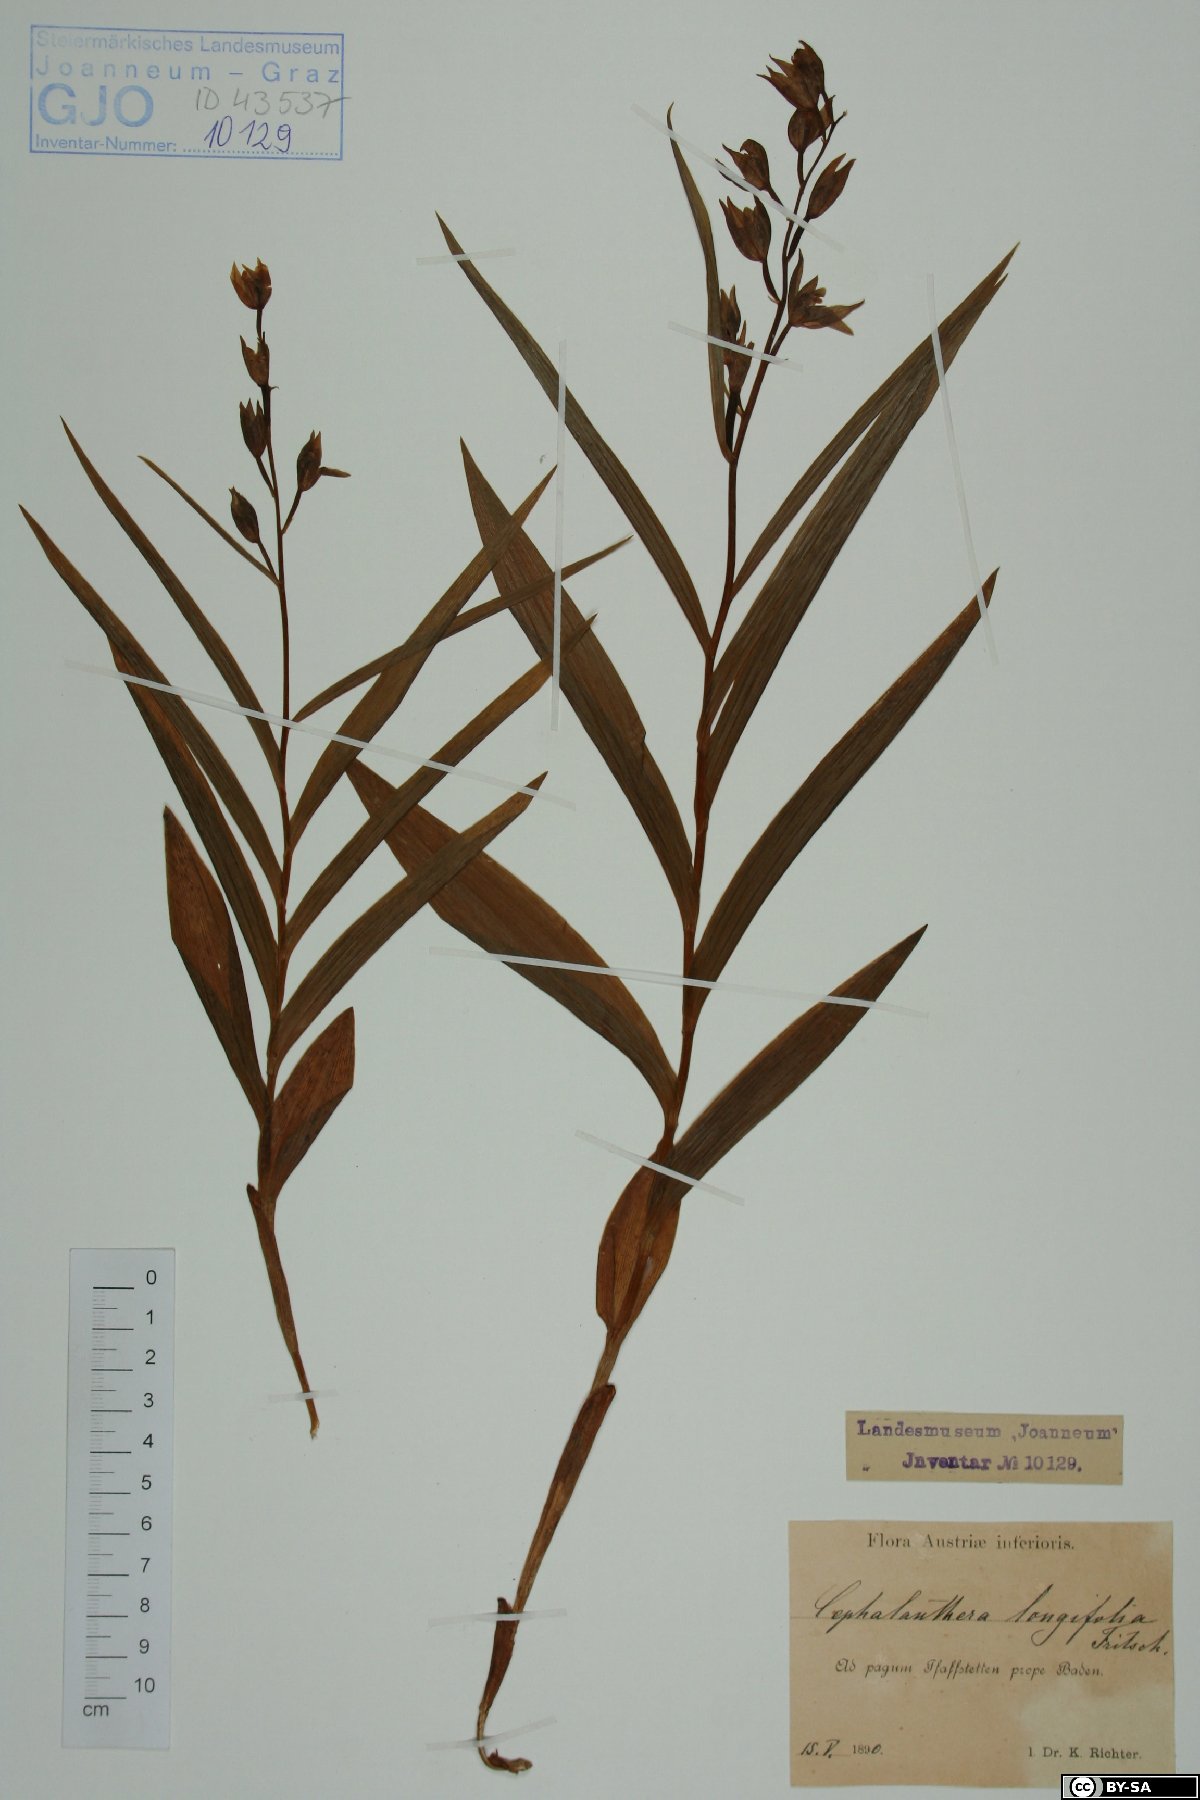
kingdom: Plantae
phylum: Tracheophyta
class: Liliopsida
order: Asparagales
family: Orchidaceae
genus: Cephalanthera
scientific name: Cephalanthera longifolia
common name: Narrow-leaved helleborine
